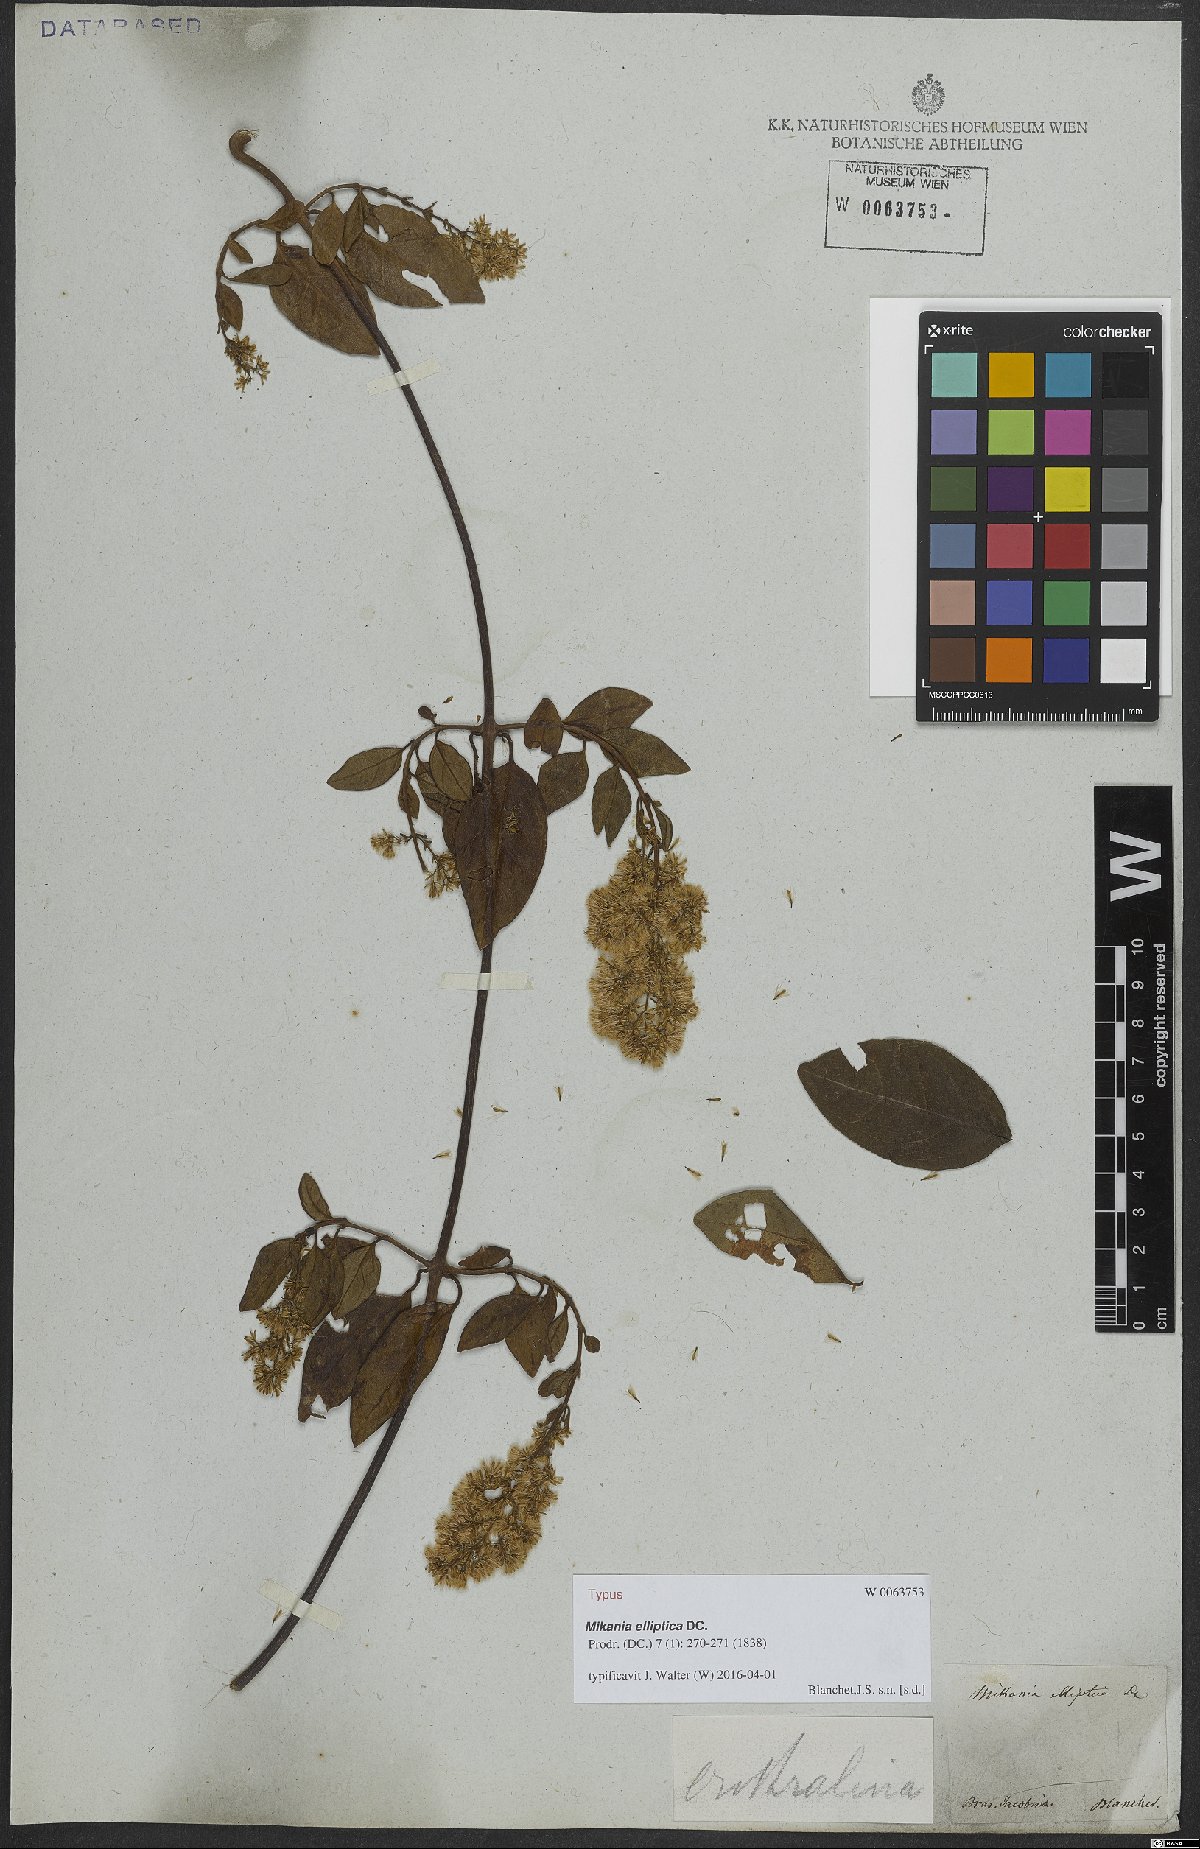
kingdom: Plantae
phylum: Tracheophyta
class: Magnoliopsida
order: Asterales
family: Asteraceae
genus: Mikania
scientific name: Mikania elliptica
